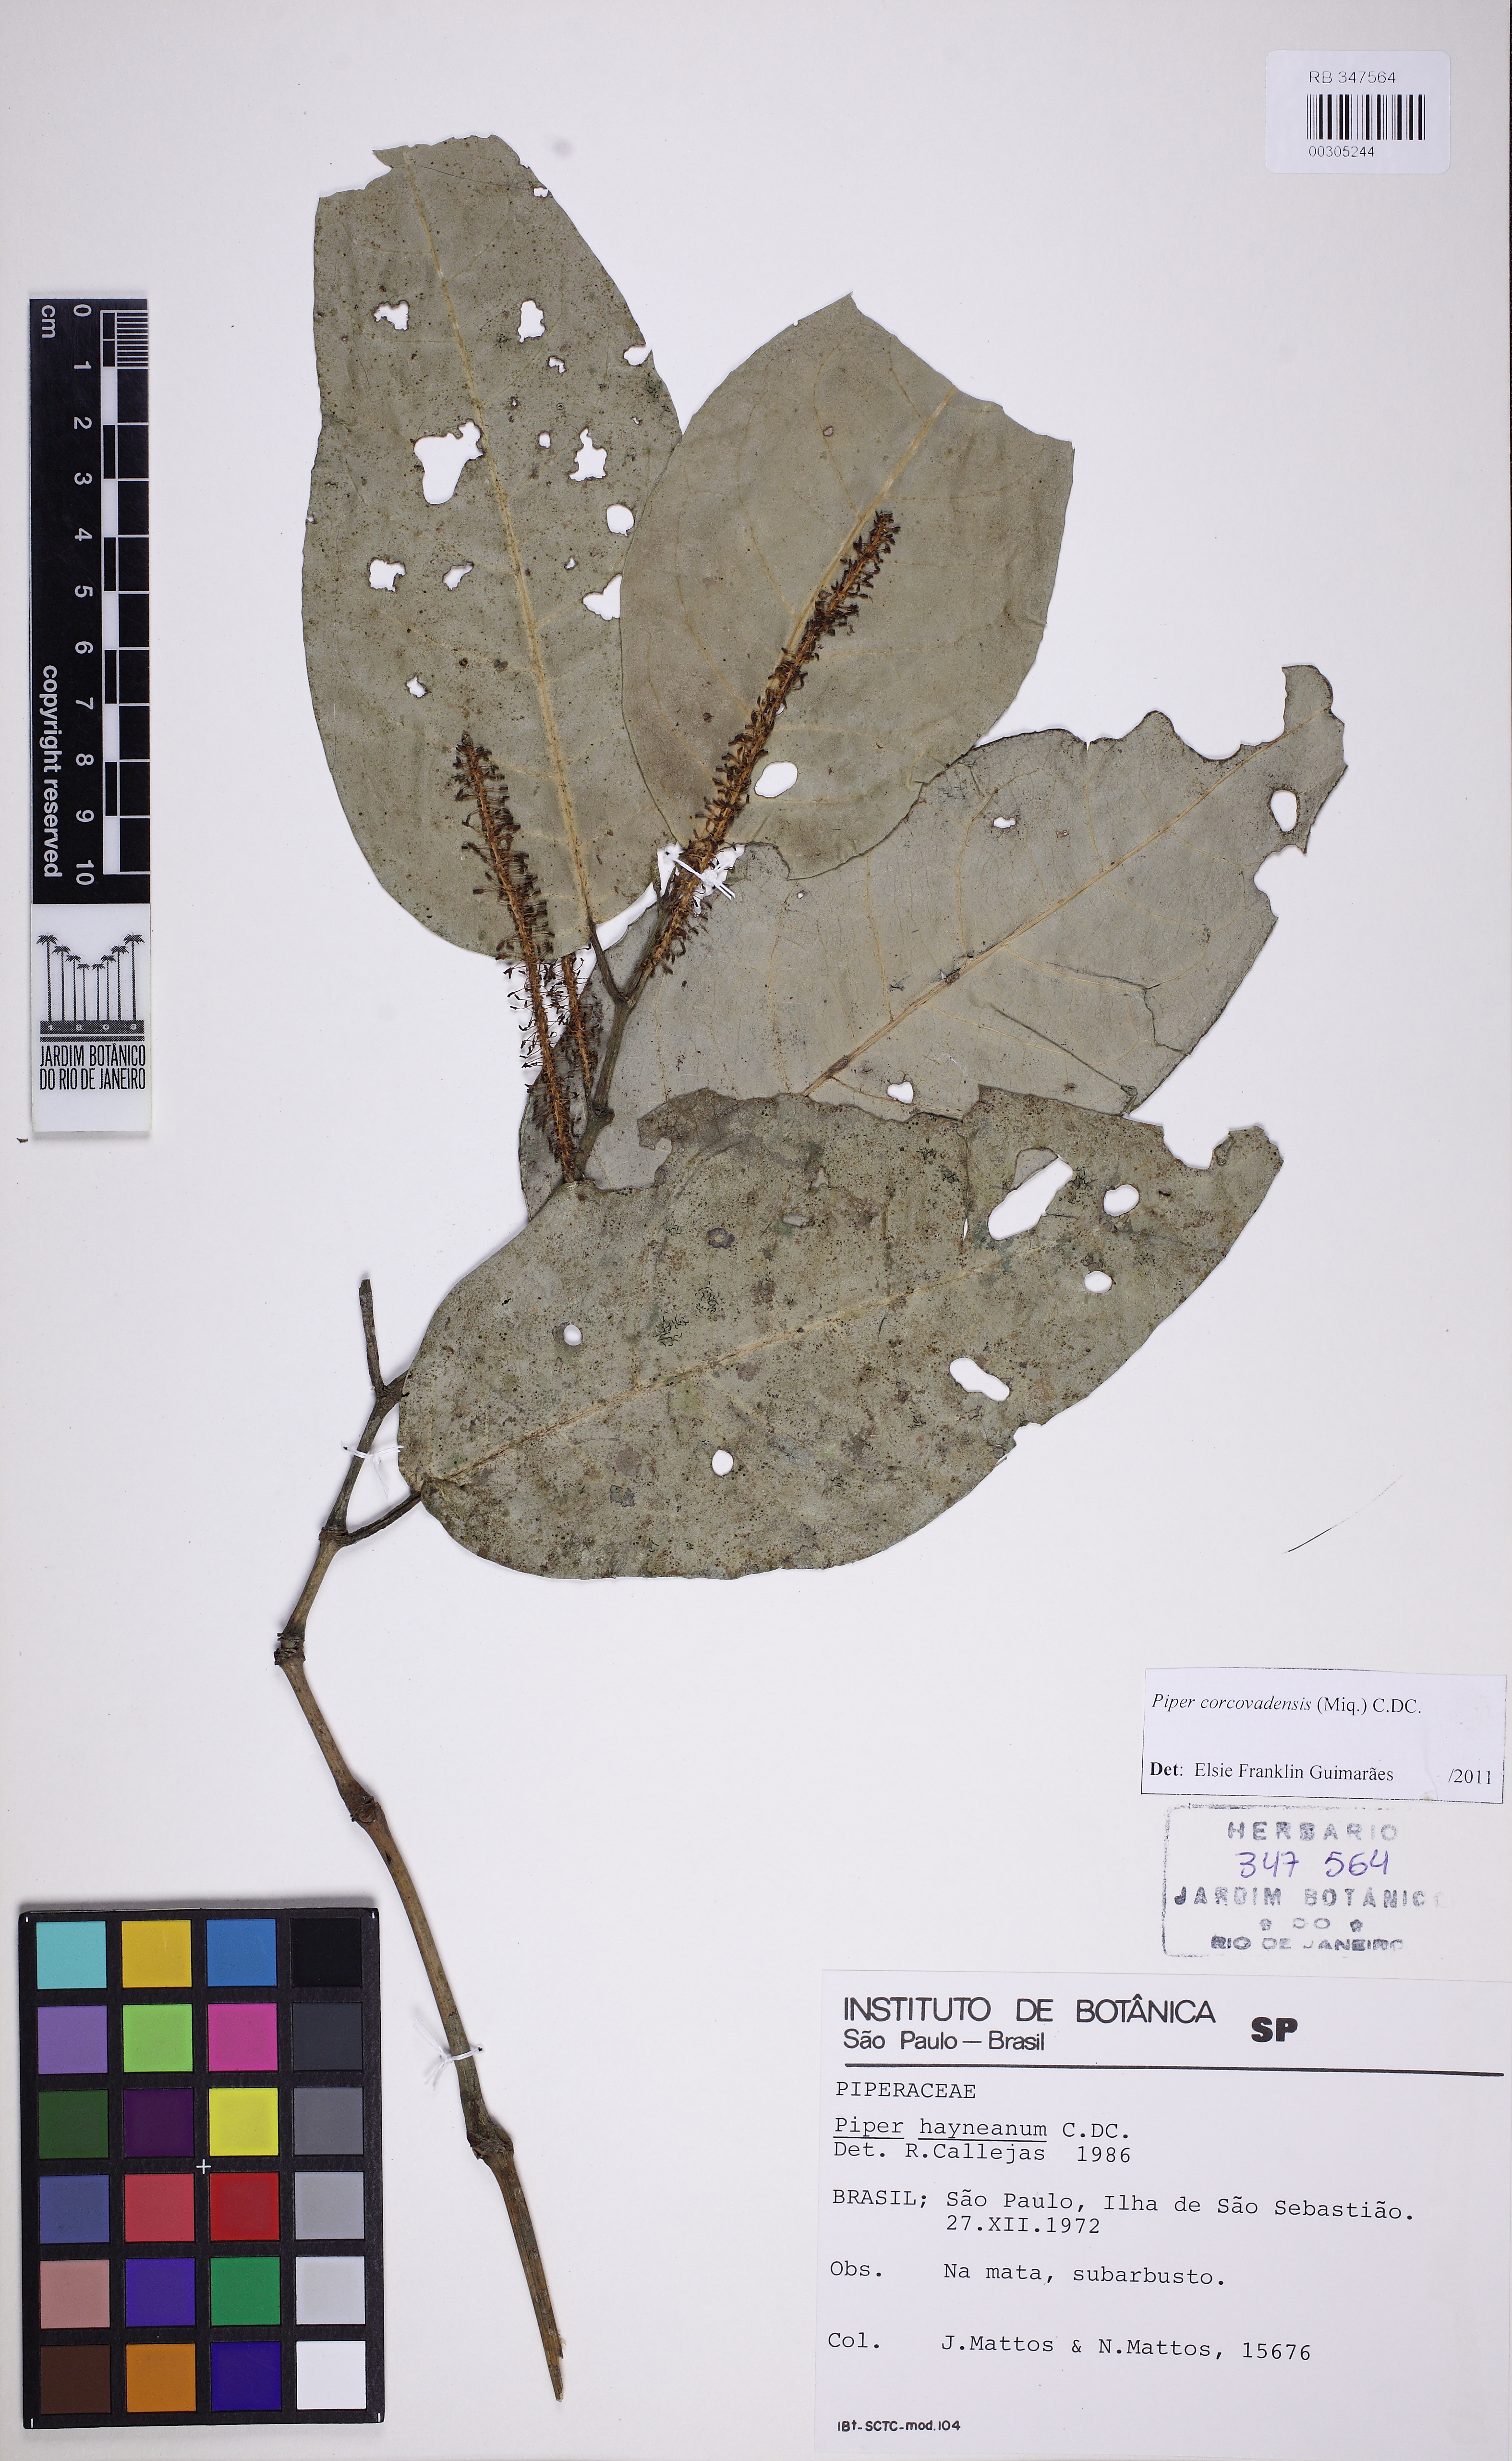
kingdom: Plantae
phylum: Tracheophyta
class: Magnoliopsida
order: Piperales
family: Piperaceae
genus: Piper
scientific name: Piper corcovadense
